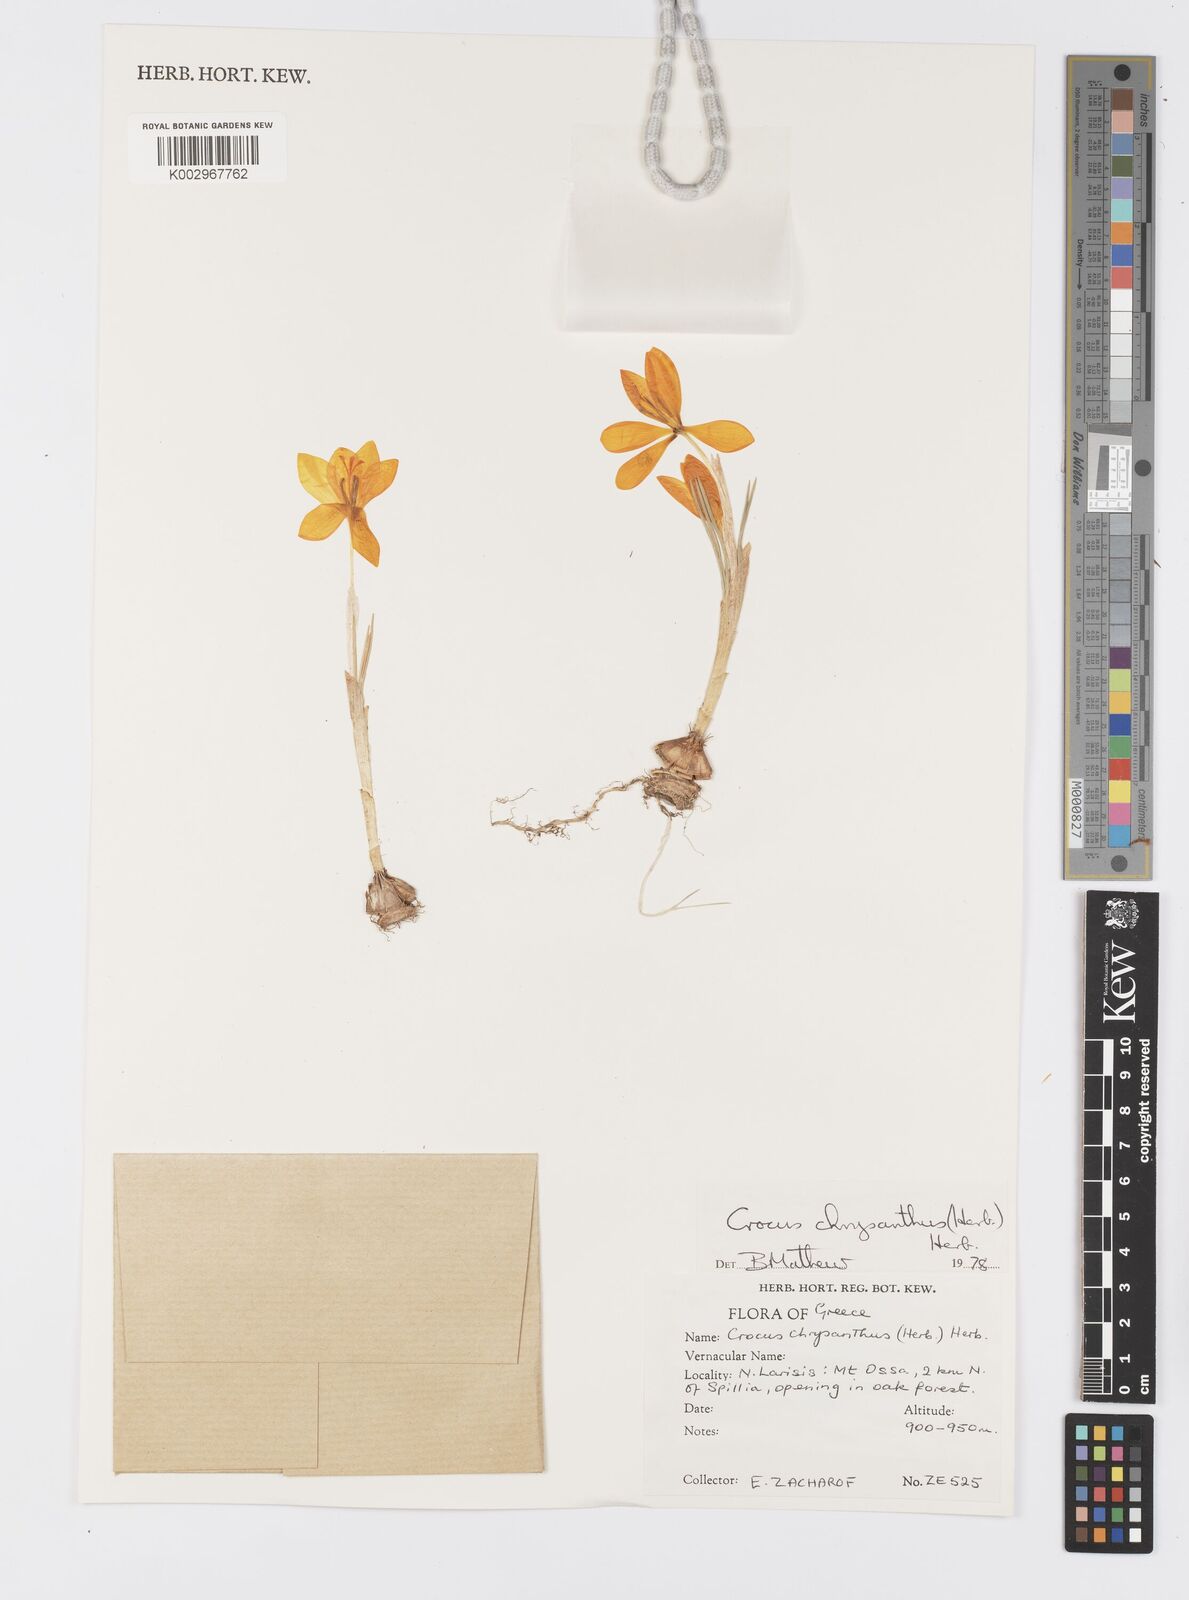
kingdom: Plantae
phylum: Tracheophyta
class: Liliopsida
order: Asparagales
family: Iridaceae
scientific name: Iridaceae
